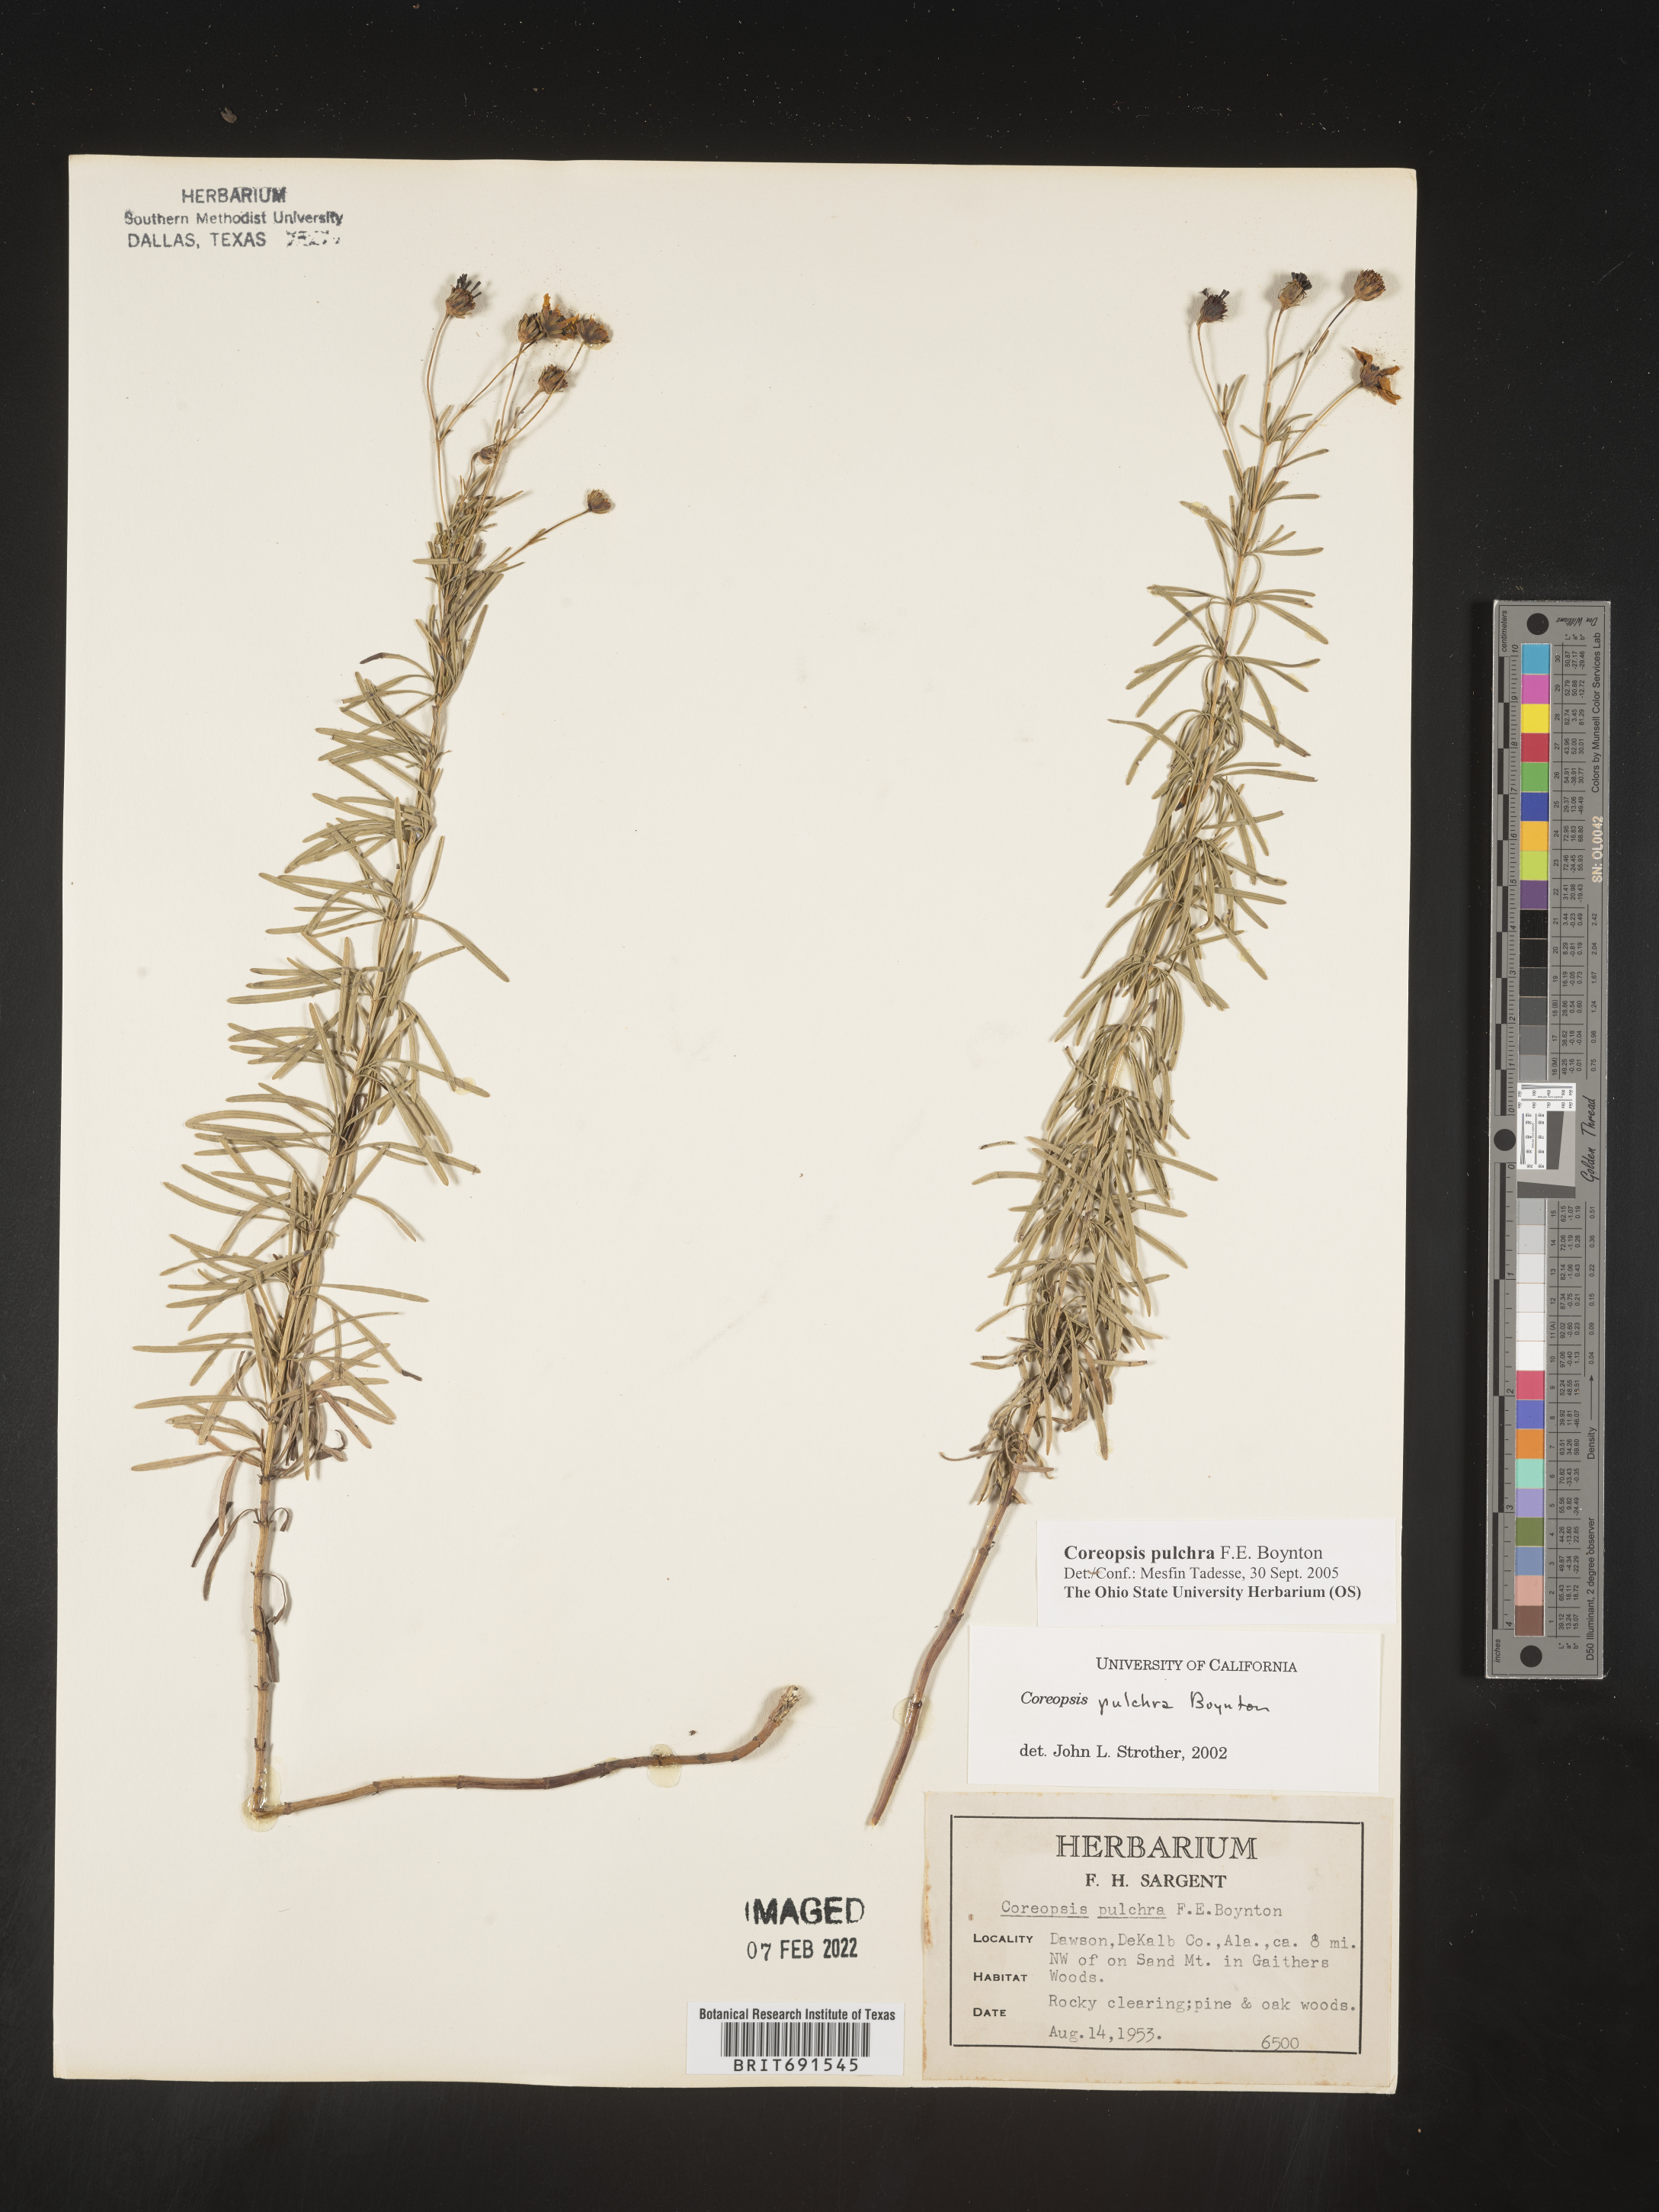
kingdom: Plantae
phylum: Tracheophyta
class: Magnoliopsida
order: Asterales
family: Asteraceae
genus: Coreopsis
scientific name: Coreopsis pulchra
